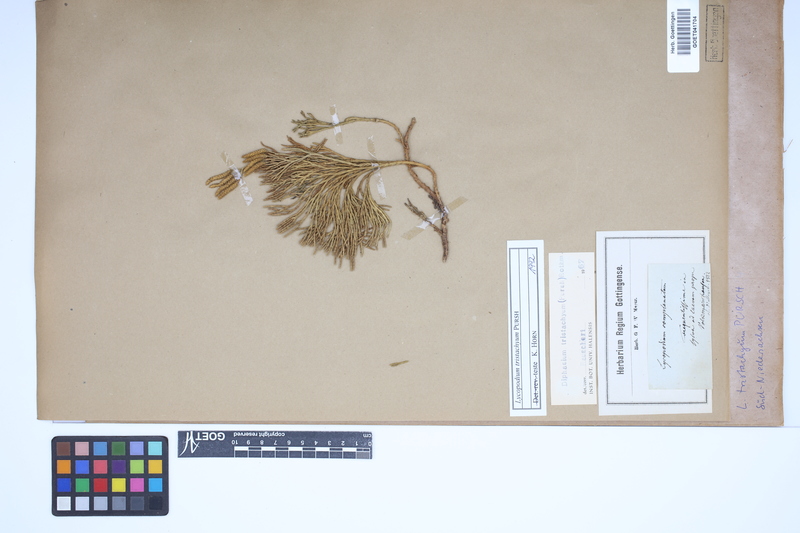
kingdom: Plantae
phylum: Tracheophyta
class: Lycopodiopsida
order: Lycopodiales
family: Lycopodiaceae
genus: Diphasiastrum
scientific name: Diphasiastrum tristachyum
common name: Blue ground-cedar
